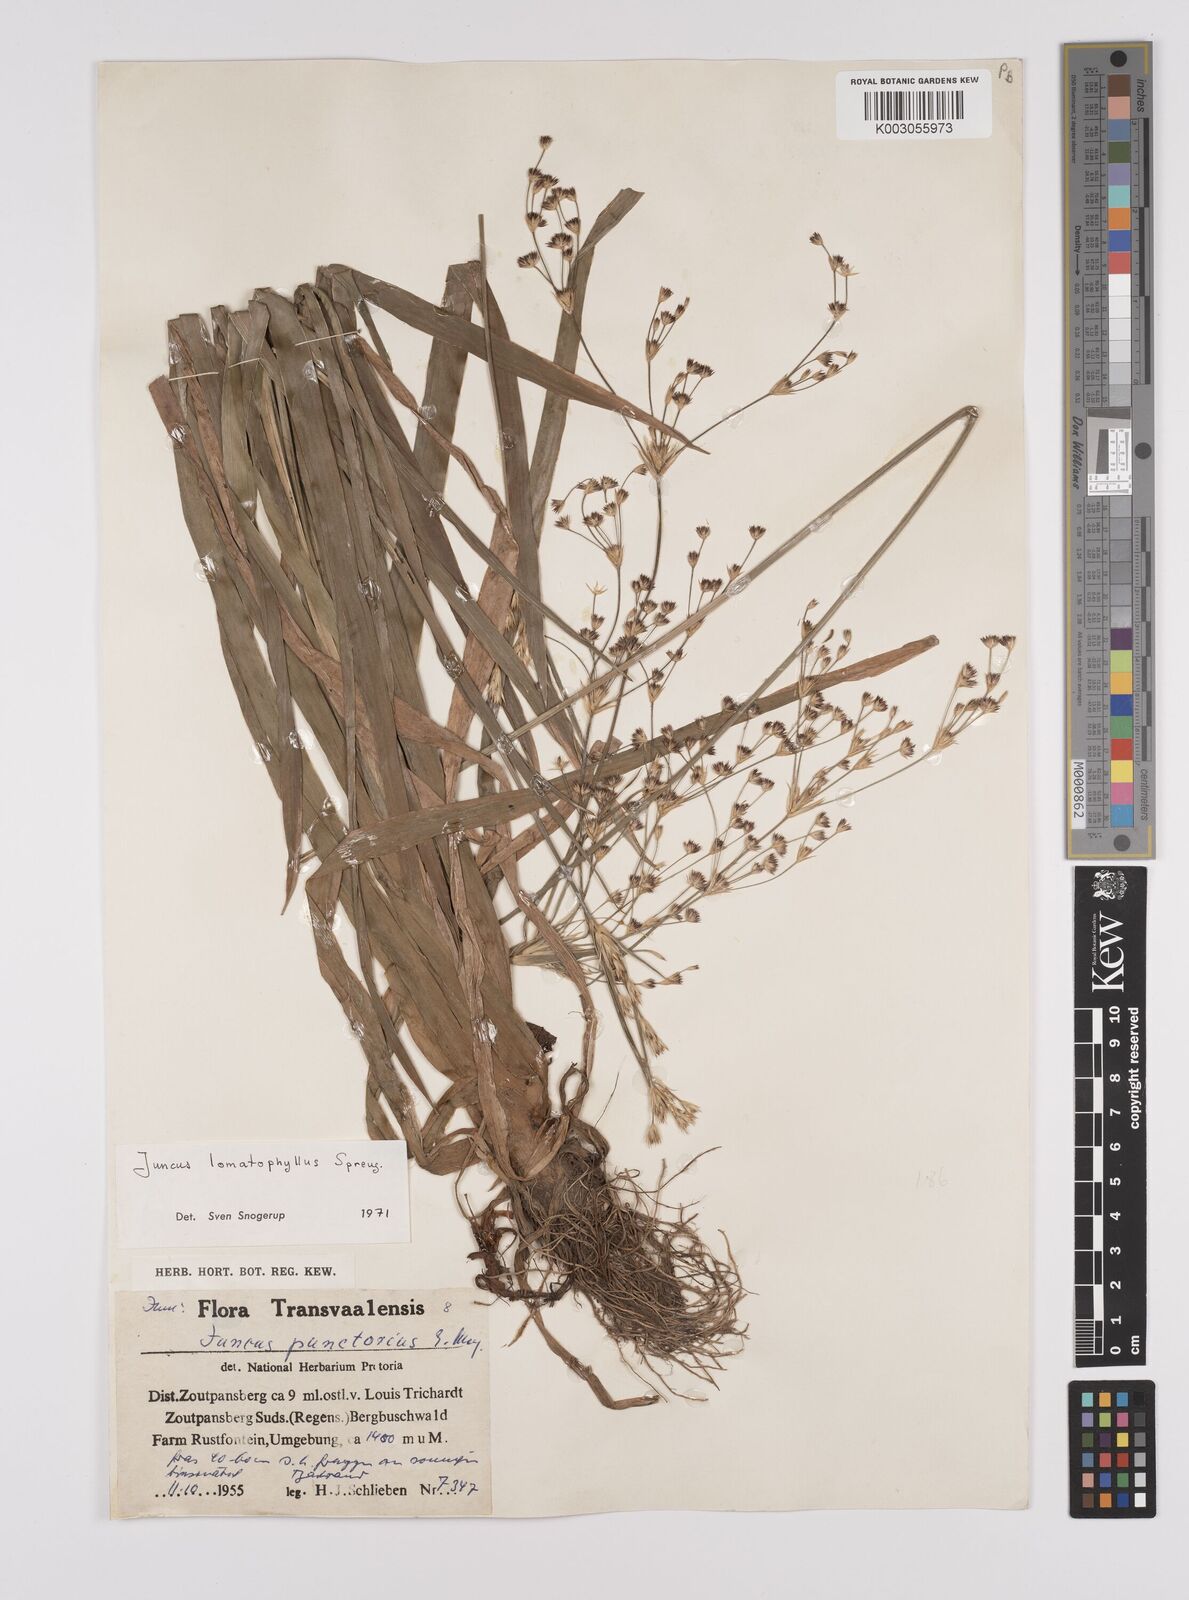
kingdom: Plantae
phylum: Tracheophyta
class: Liliopsida
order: Poales
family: Juncaceae
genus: Juncus
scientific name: Juncus lomatophyllus
